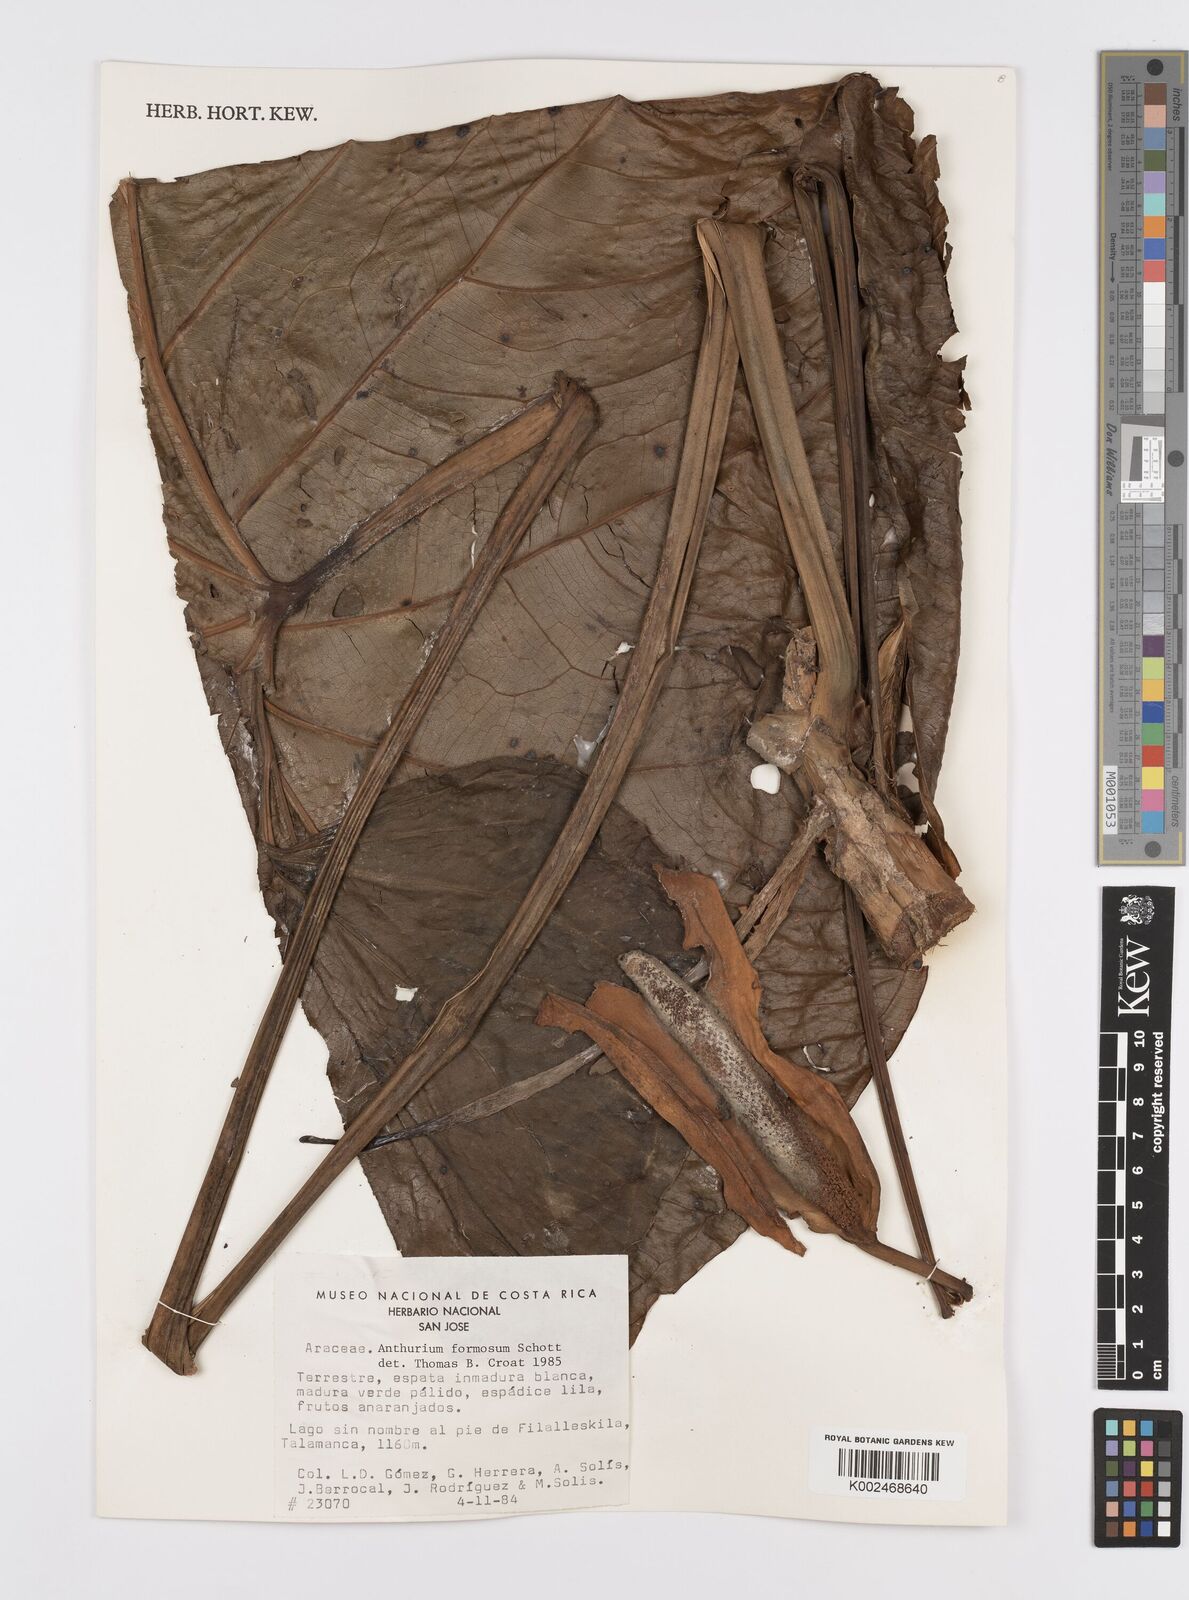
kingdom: Plantae
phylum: Tracheophyta
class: Liliopsida
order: Alismatales
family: Araceae
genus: Anthurium
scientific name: Anthurium formosum
